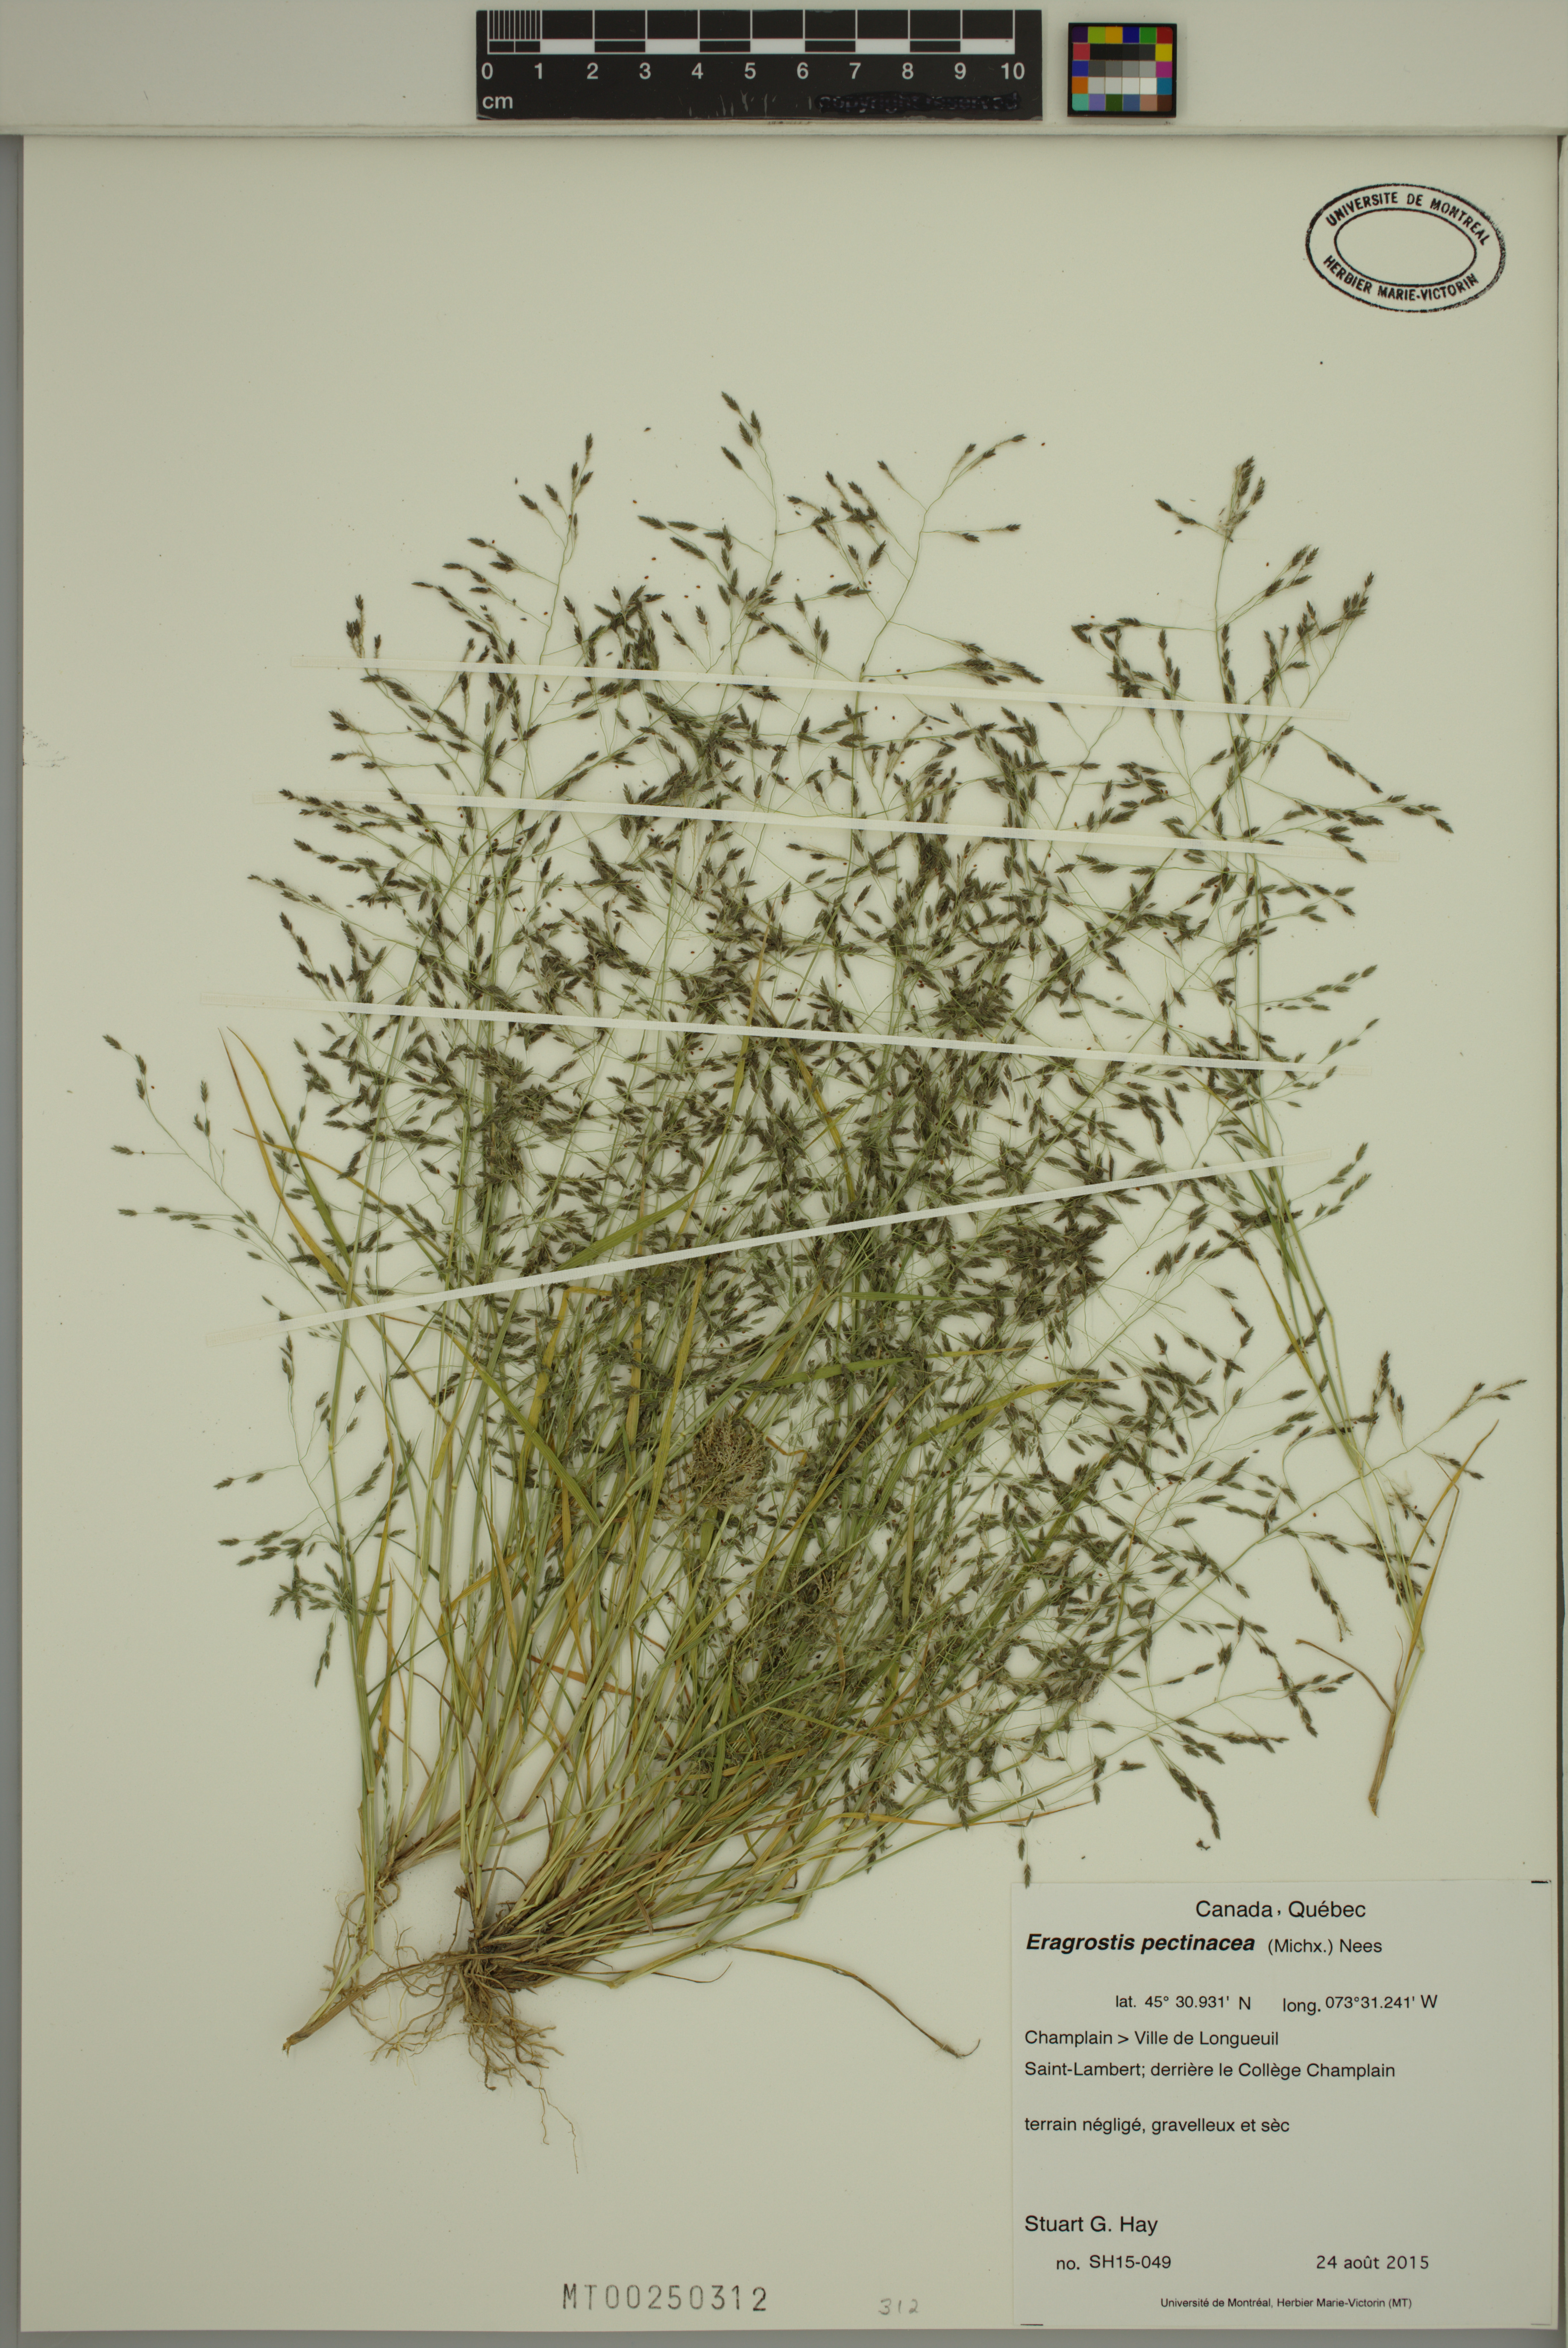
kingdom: Plantae
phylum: Tracheophyta
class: Liliopsida
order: Poales
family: Poaceae
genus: Eragrostis
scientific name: Eragrostis pectinacea
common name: Tufted lovegrass
